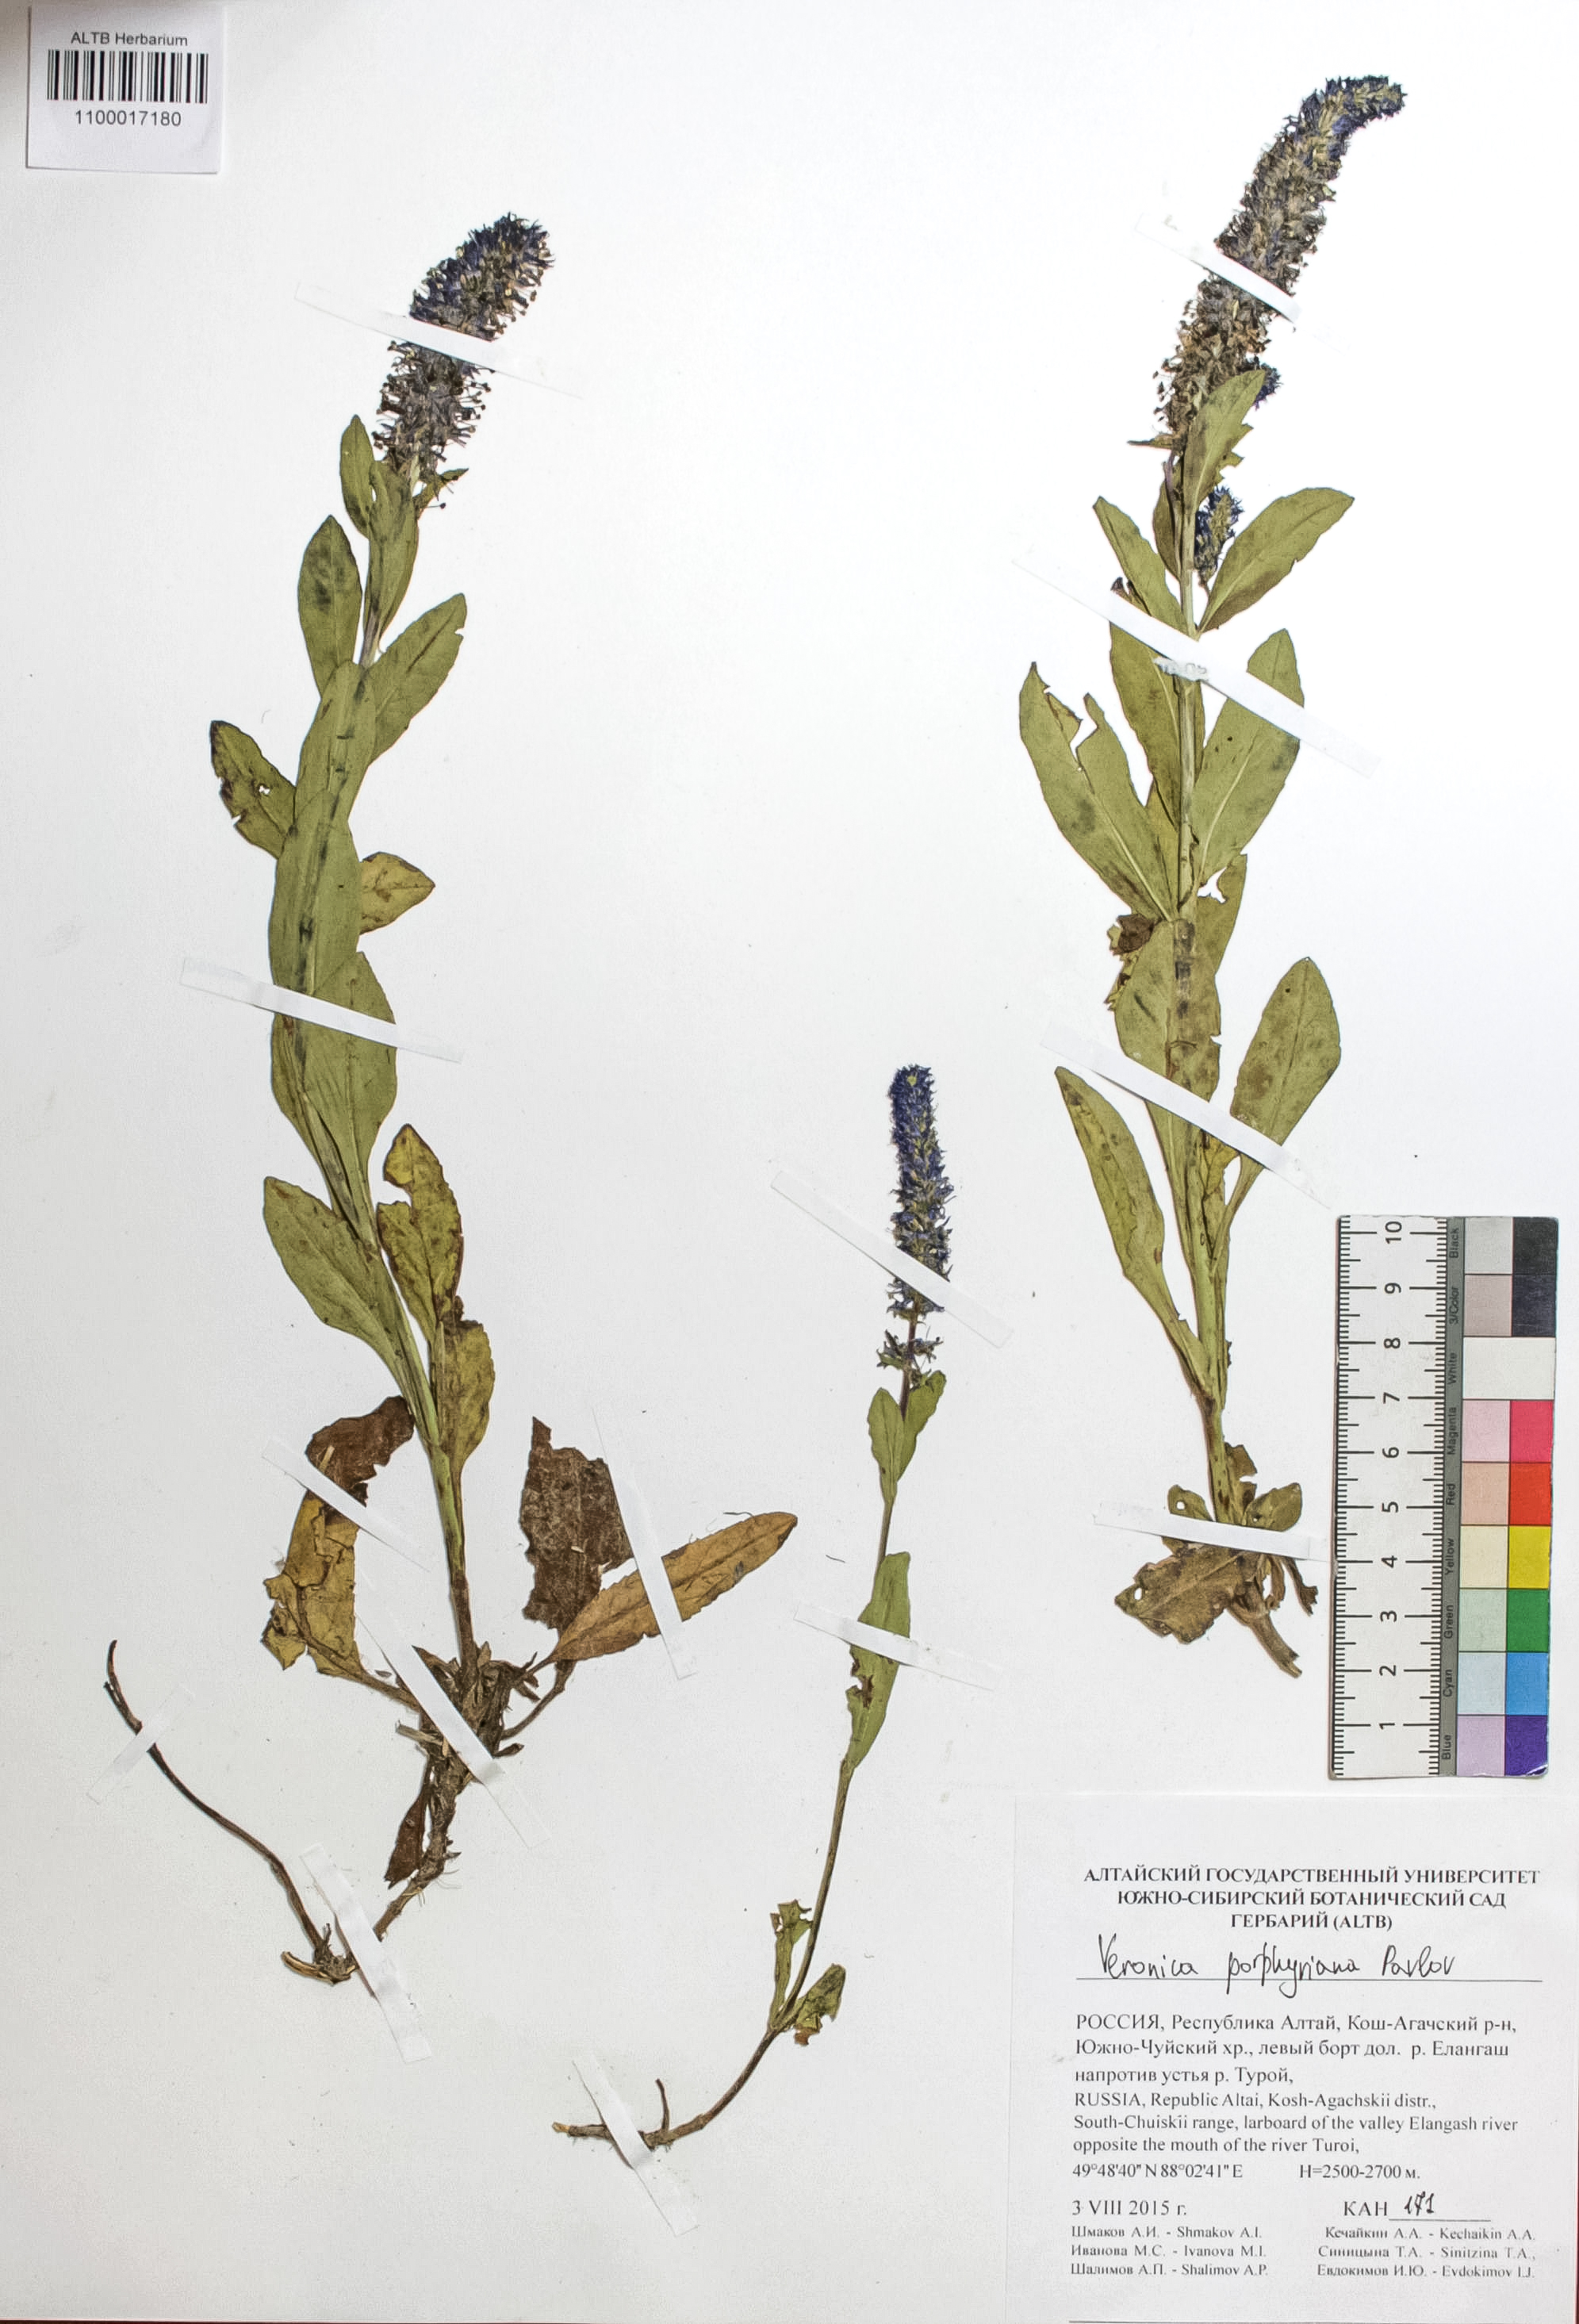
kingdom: Plantae
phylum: Tracheophyta
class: Magnoliopsida
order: Lamiales
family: Plantaginaceae
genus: Veronica
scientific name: Veronica porphyriana
